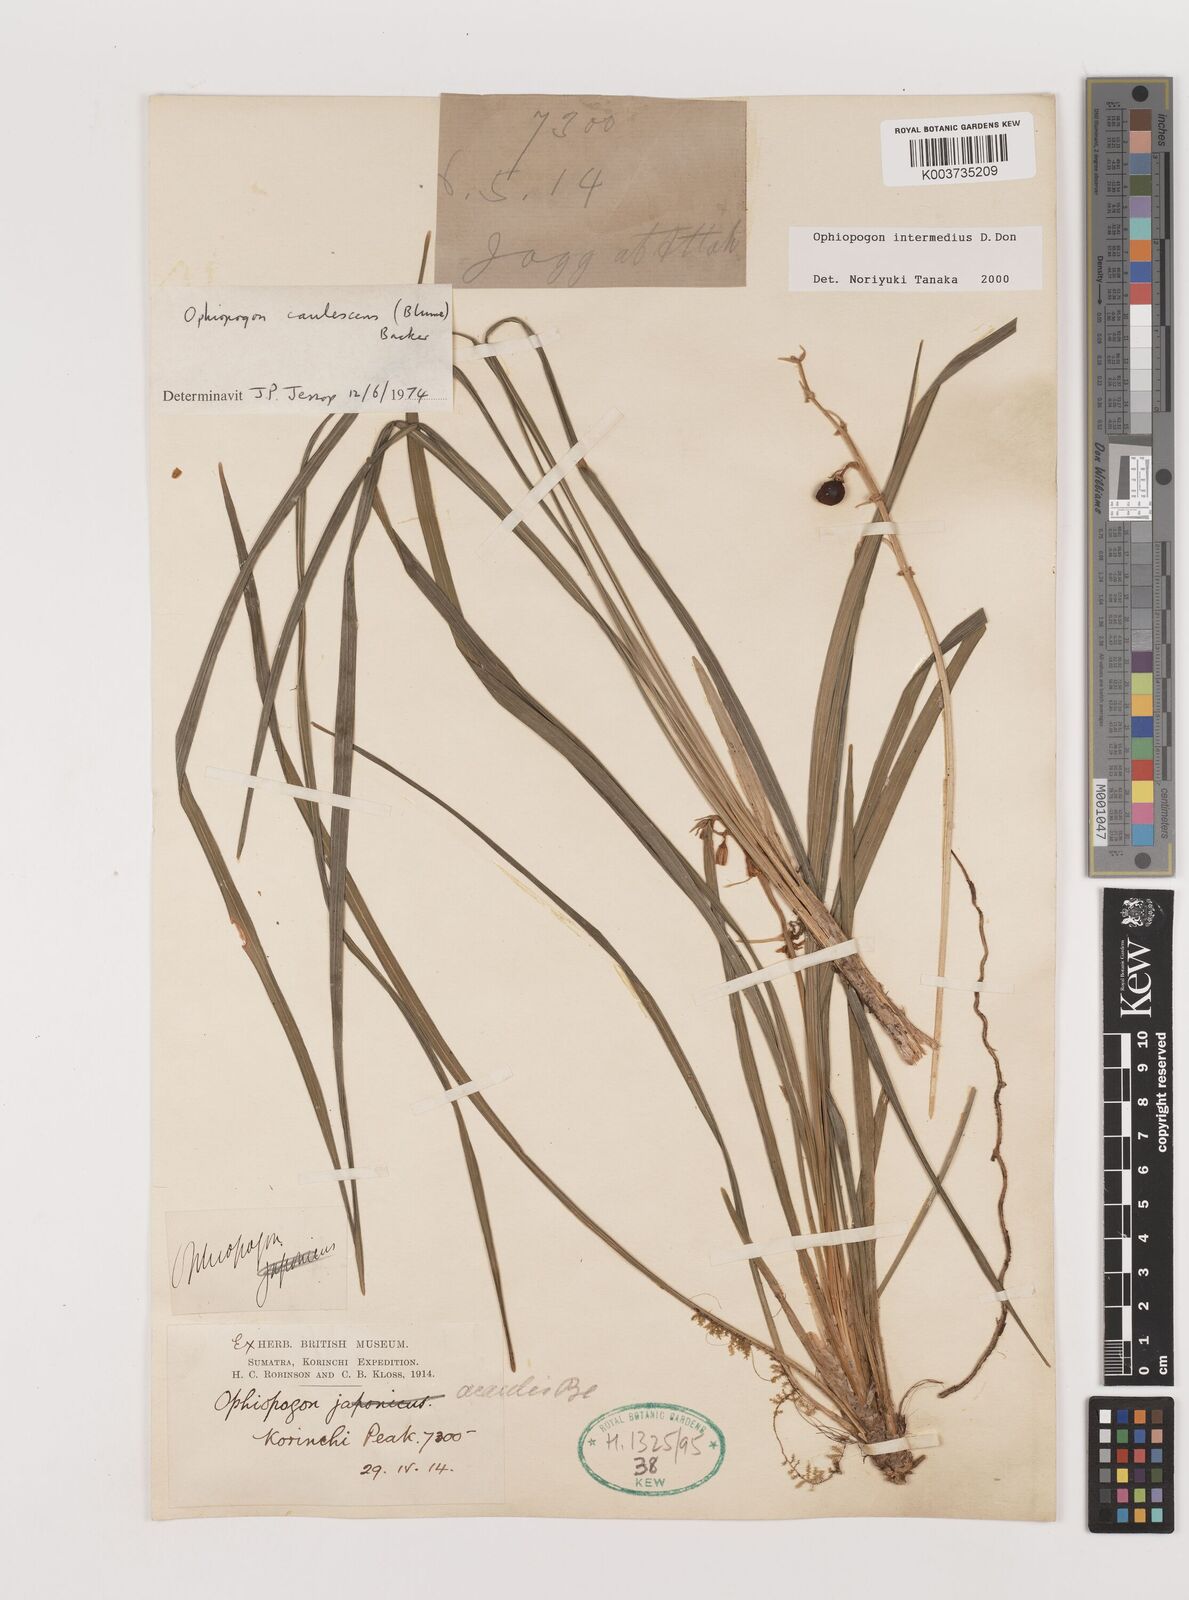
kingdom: Plantae
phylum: Tracheophyta
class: Liliopsida
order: Asparagales
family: Asparagaceae
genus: Ophiopogon
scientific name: Ophiopogon intermedius
